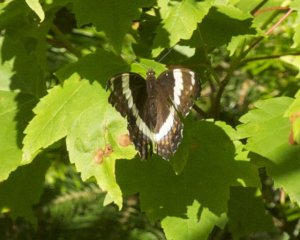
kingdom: Animalia
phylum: Arthropoda
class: Insecta
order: Lepidoptera
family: Nymphalidae
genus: Limenitis
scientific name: Limenitis arthemis
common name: Red-spotted Admiral
